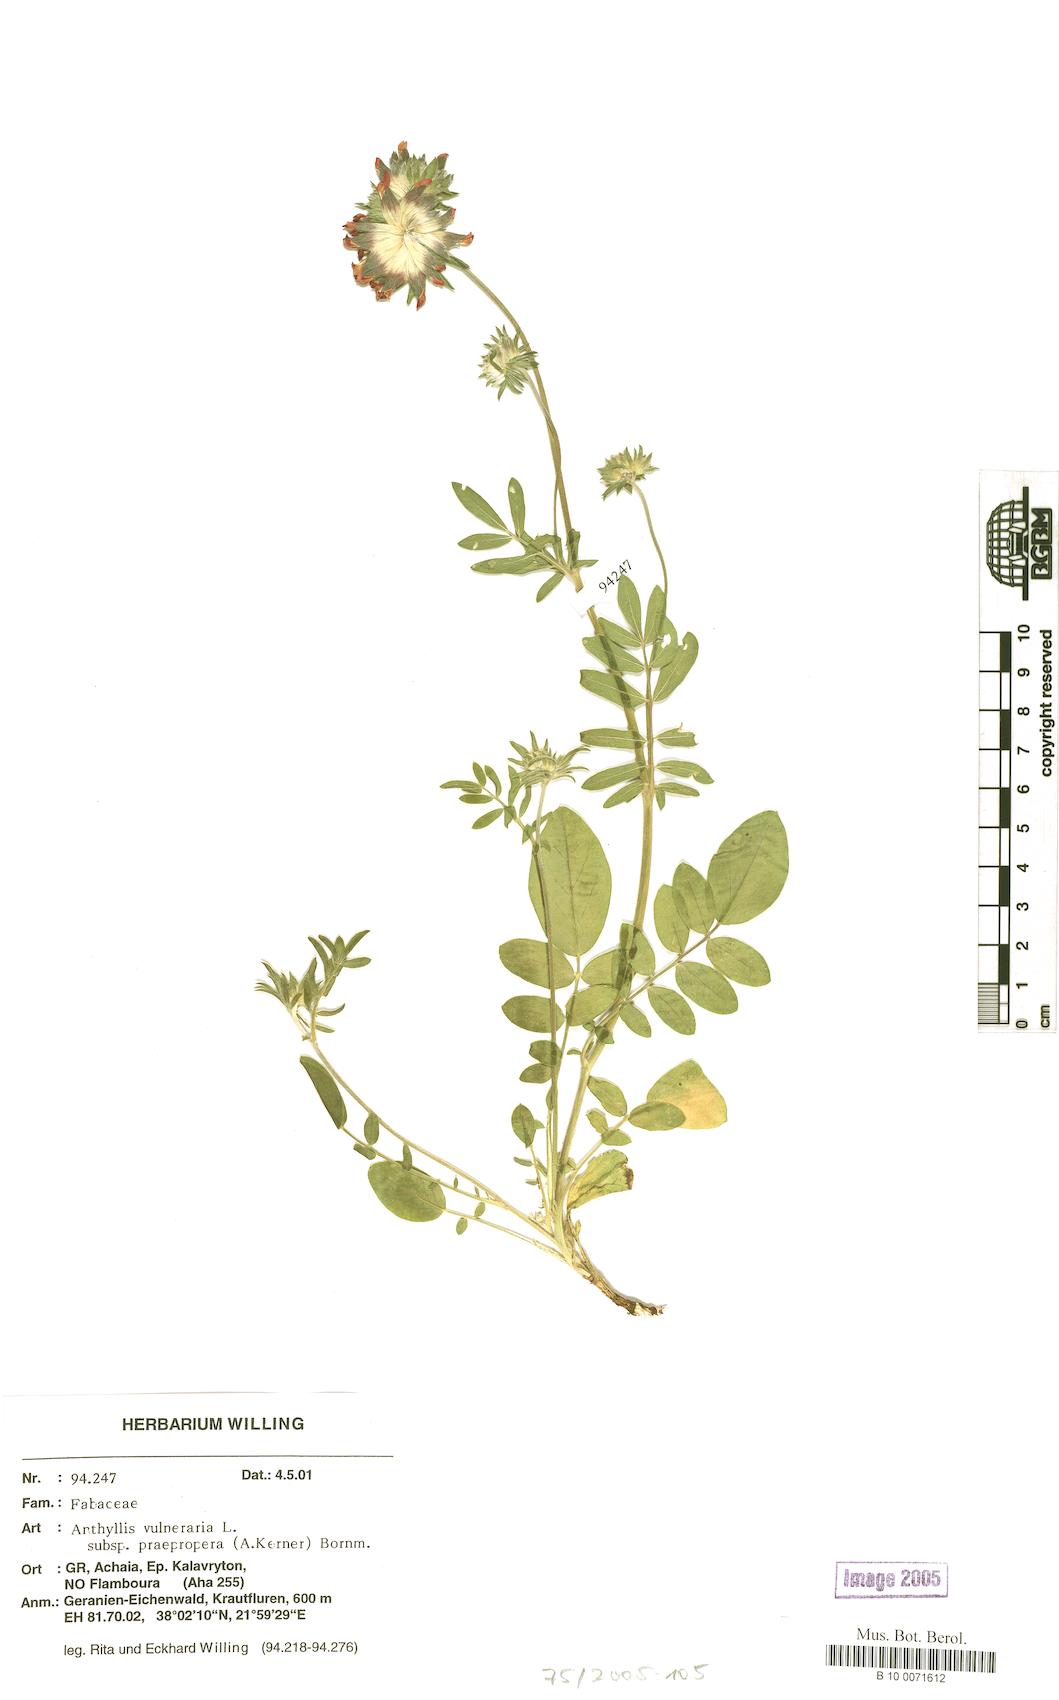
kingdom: Plantae
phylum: Tracheophyta
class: Magnoliopsida
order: Fabales
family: Fabaceae
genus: Anthyllis
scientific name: Anthyllis vulneraria
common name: Kidney vetch
